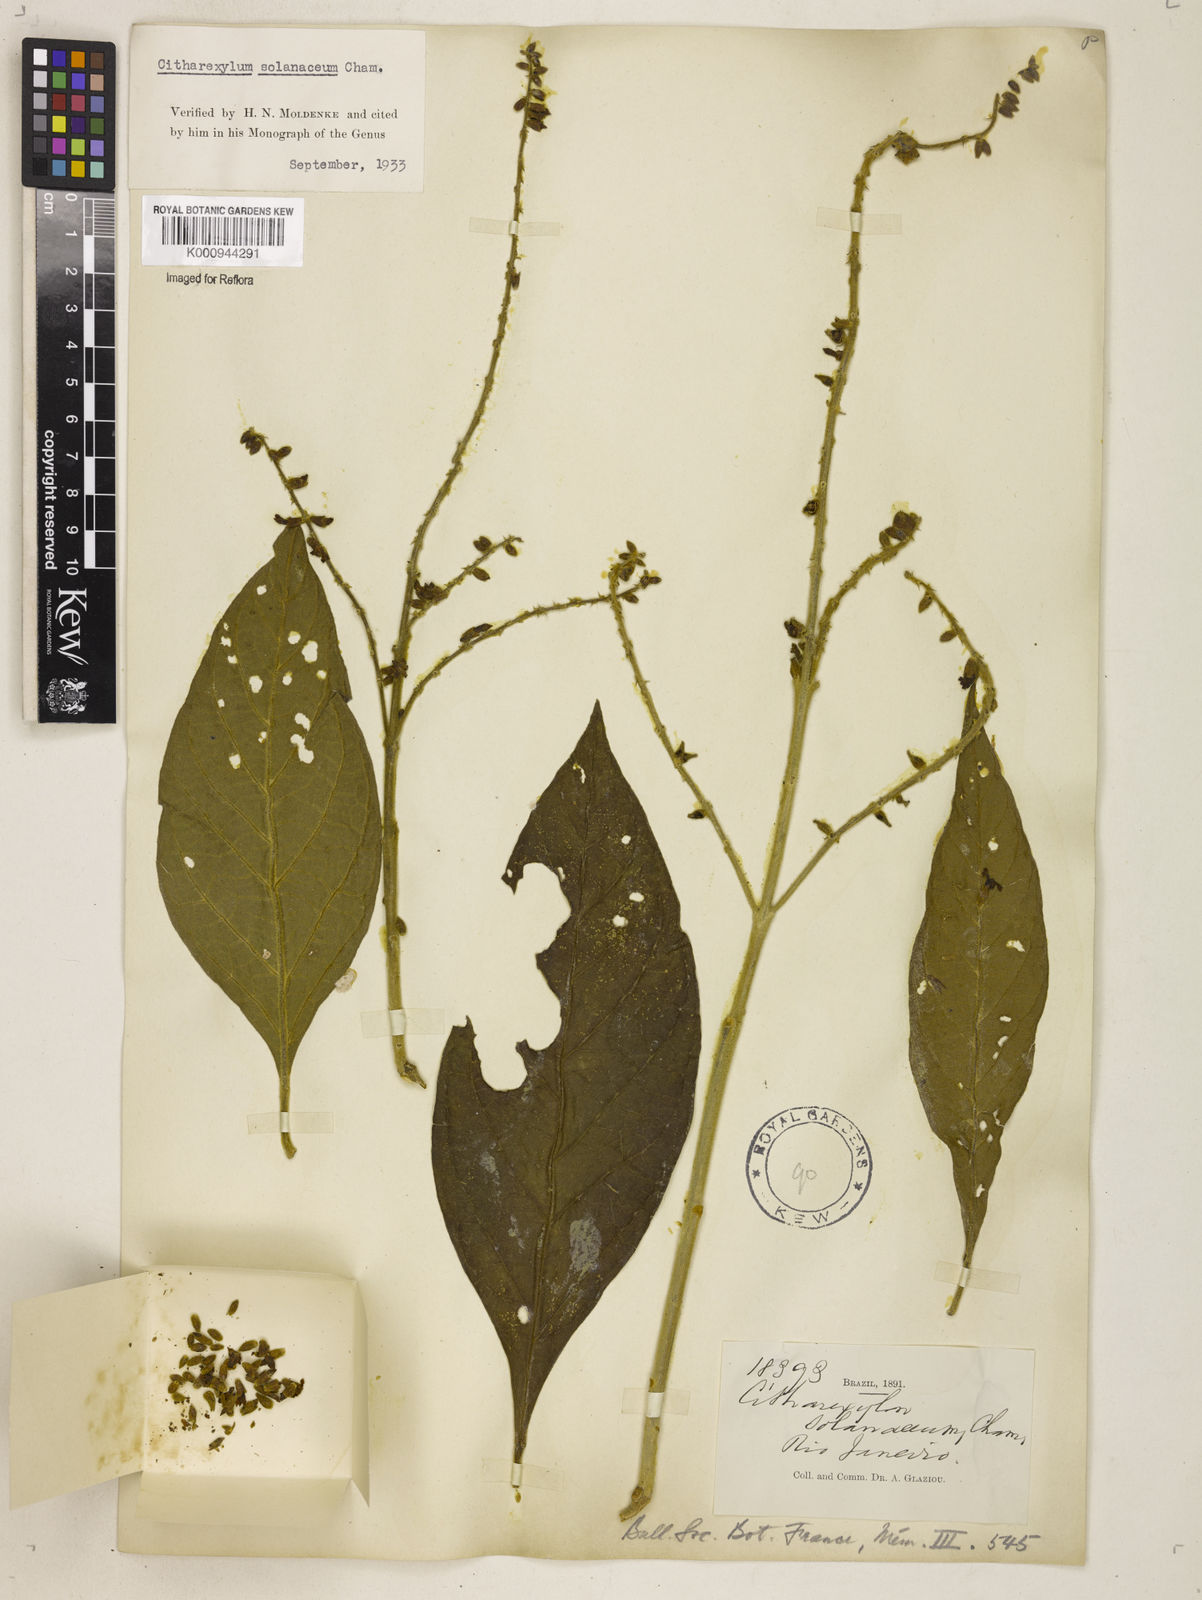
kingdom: Plantae
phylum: Tracheophyta
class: Magnoliopsida
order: Lamiales
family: Verbenaceae
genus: Citharexylum
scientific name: Citharexylum solanaceum
